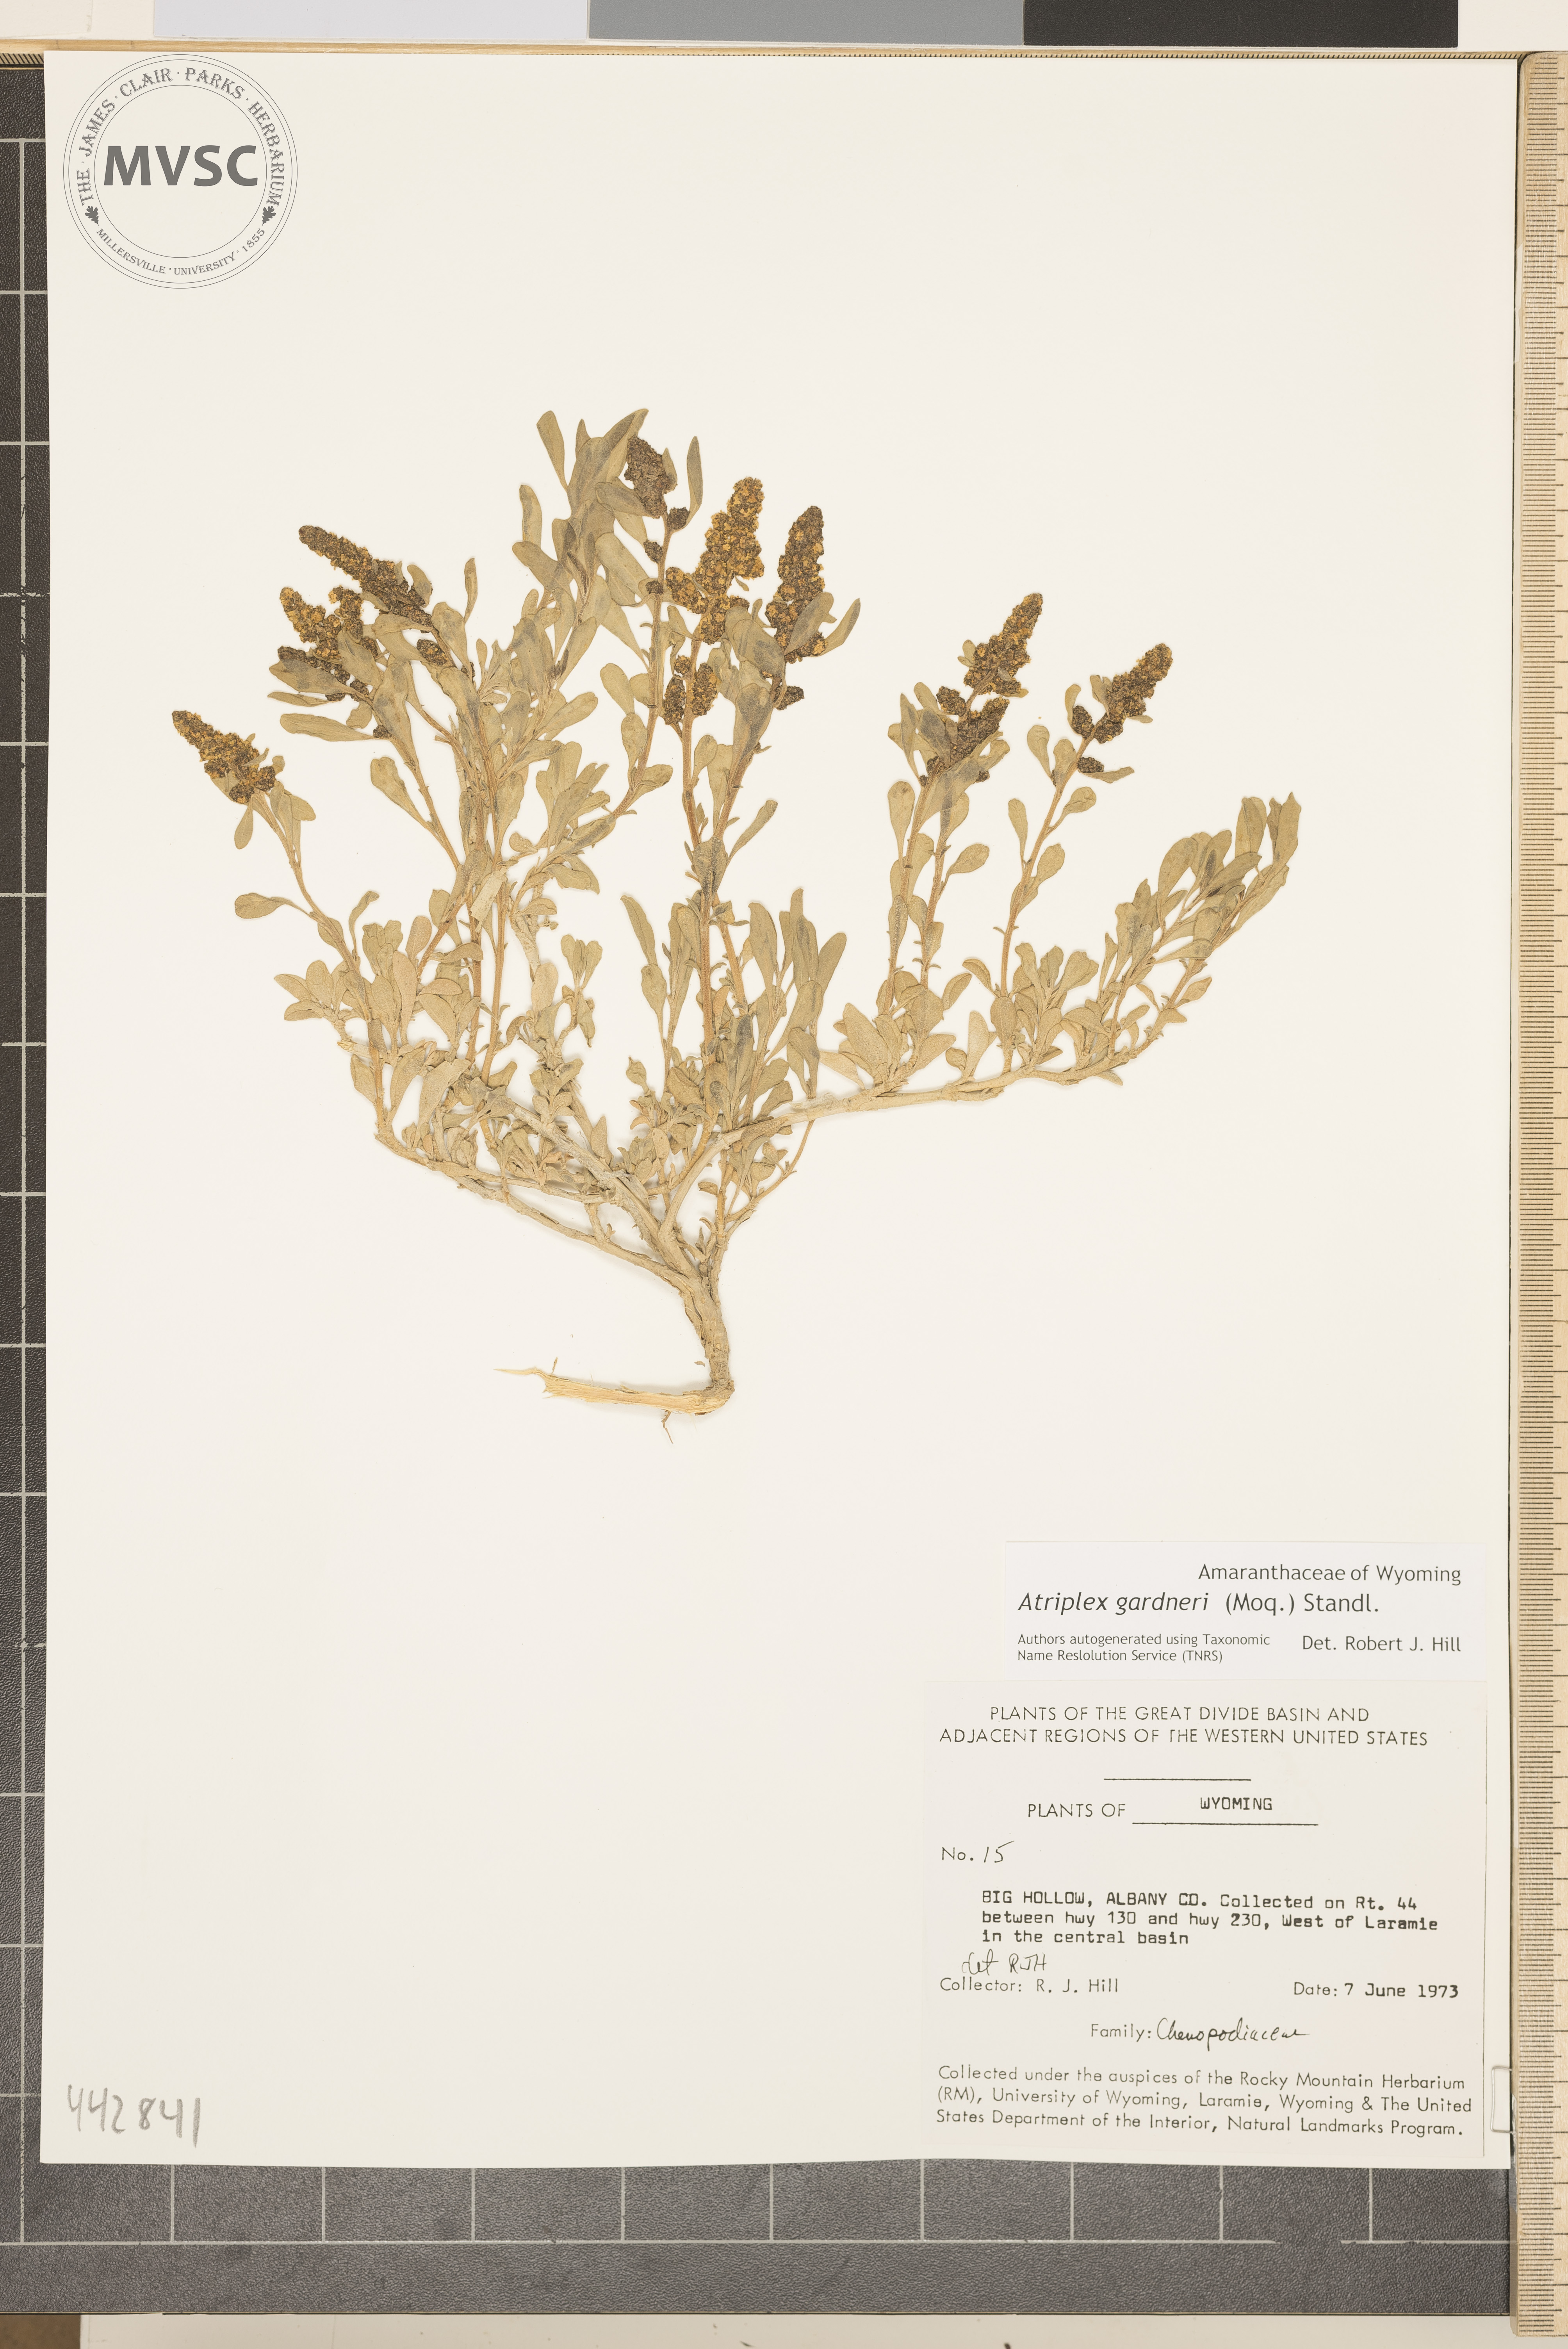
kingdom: Plantae
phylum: Tracheophyta
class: Magnoliopsida
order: Caryophyllales
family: Amaranthaceae
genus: Atriplex
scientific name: Atriplex gardneri
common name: Gardner's orache
